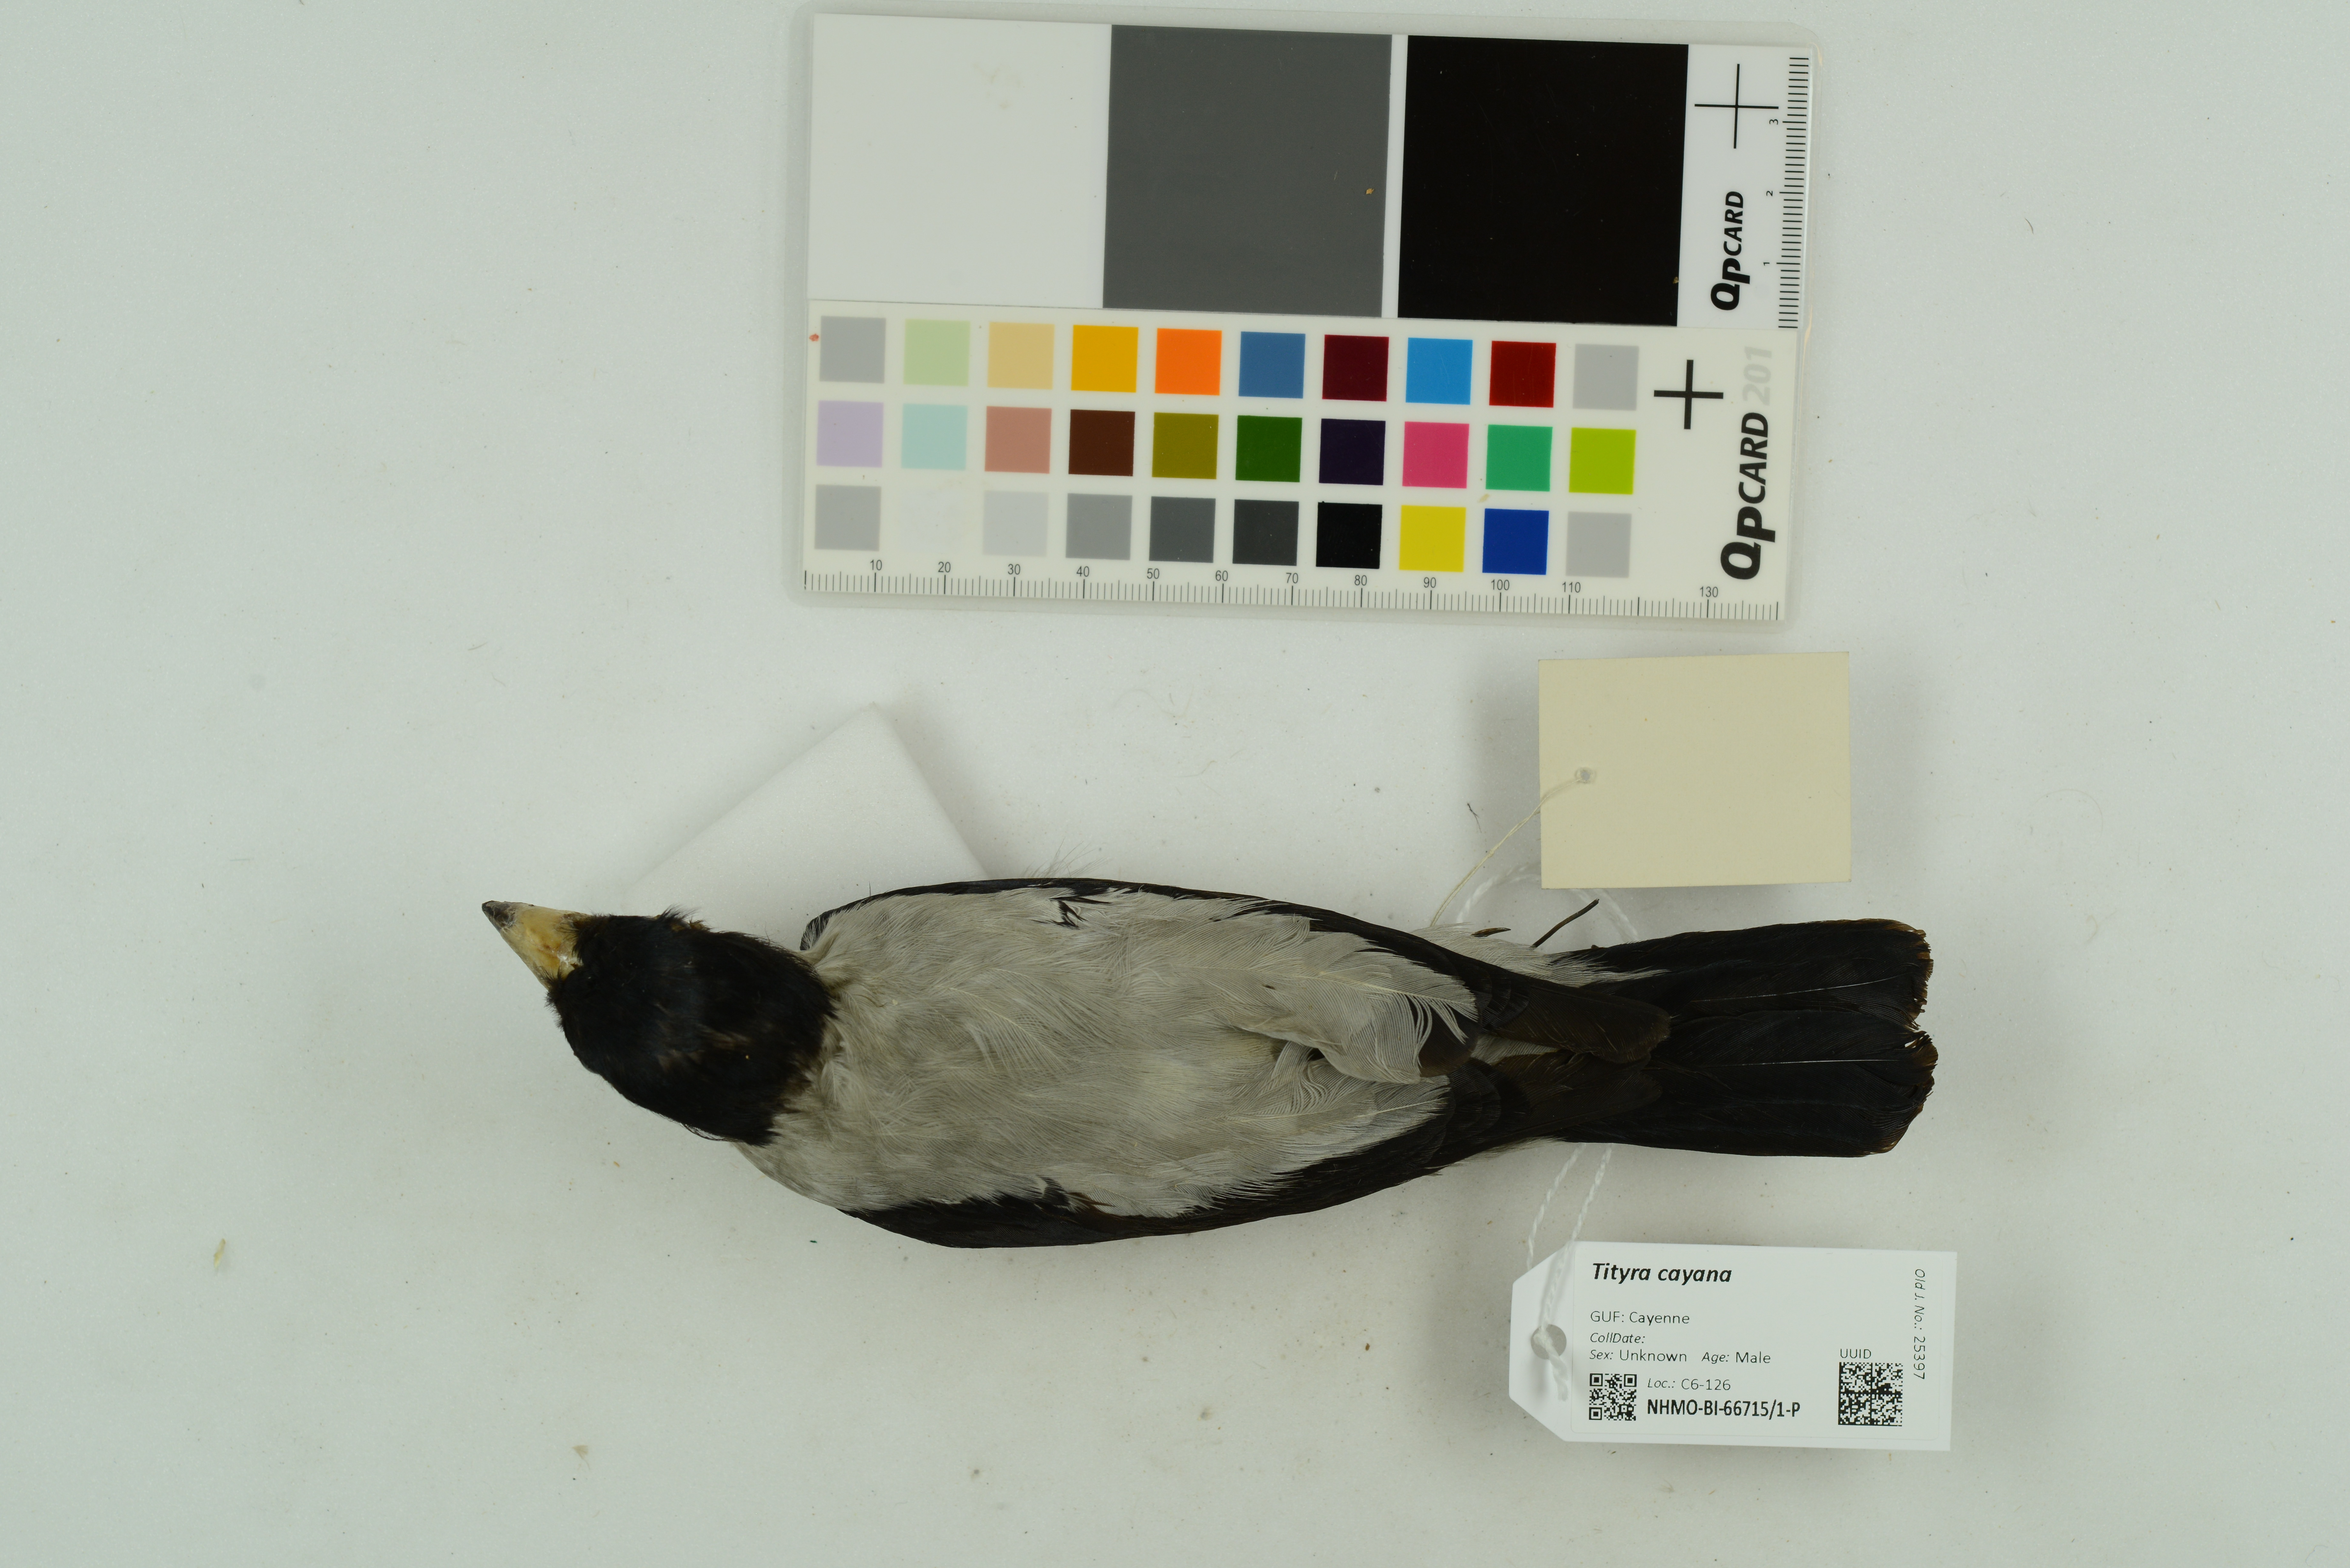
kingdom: Animalia
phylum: Chordata
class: Aves
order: Passeriformes
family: Cotingidae
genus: Tityra
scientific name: Tityra cayana
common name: Black-tailed tityra
